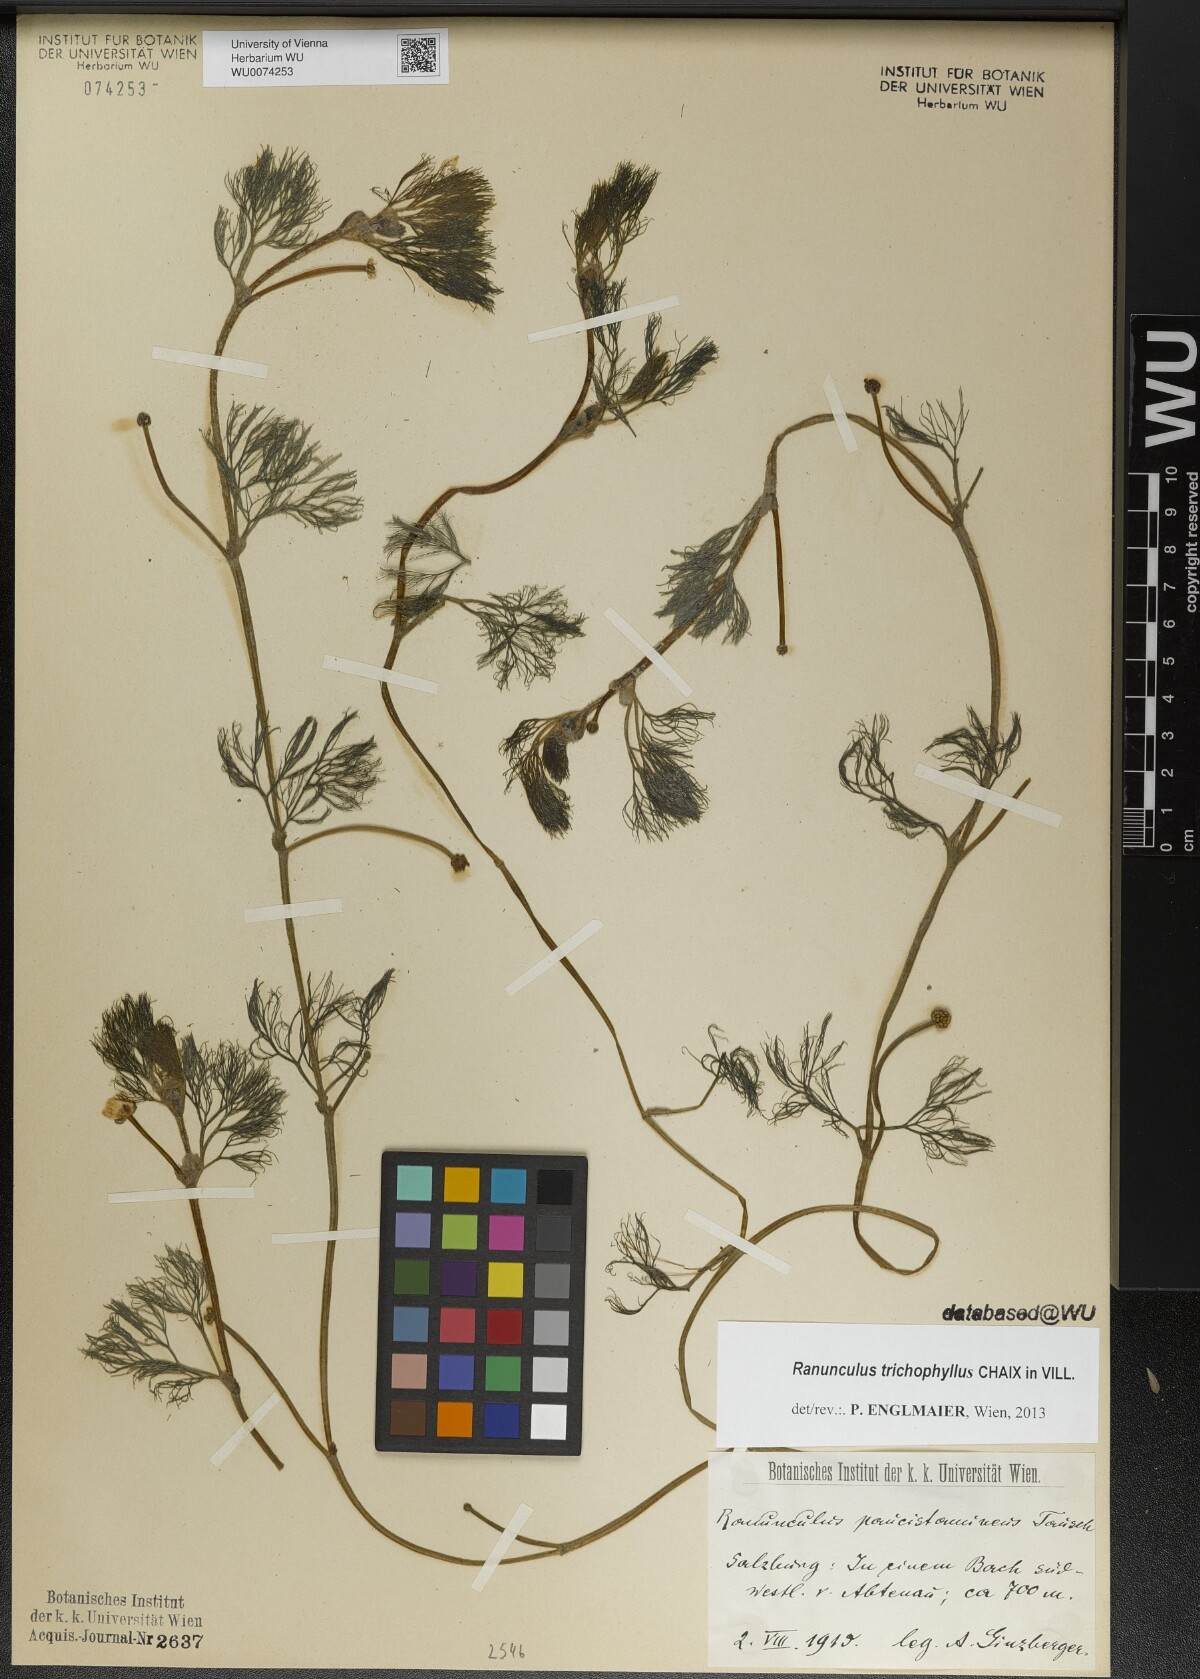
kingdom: Plantae
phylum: Tracheophyta
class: Magnoliopsida
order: Ranunculales
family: Ranunculaceae
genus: Ranunculus
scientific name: Ranunculus trichophyllus
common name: Thread-leaved water-crowfoot
